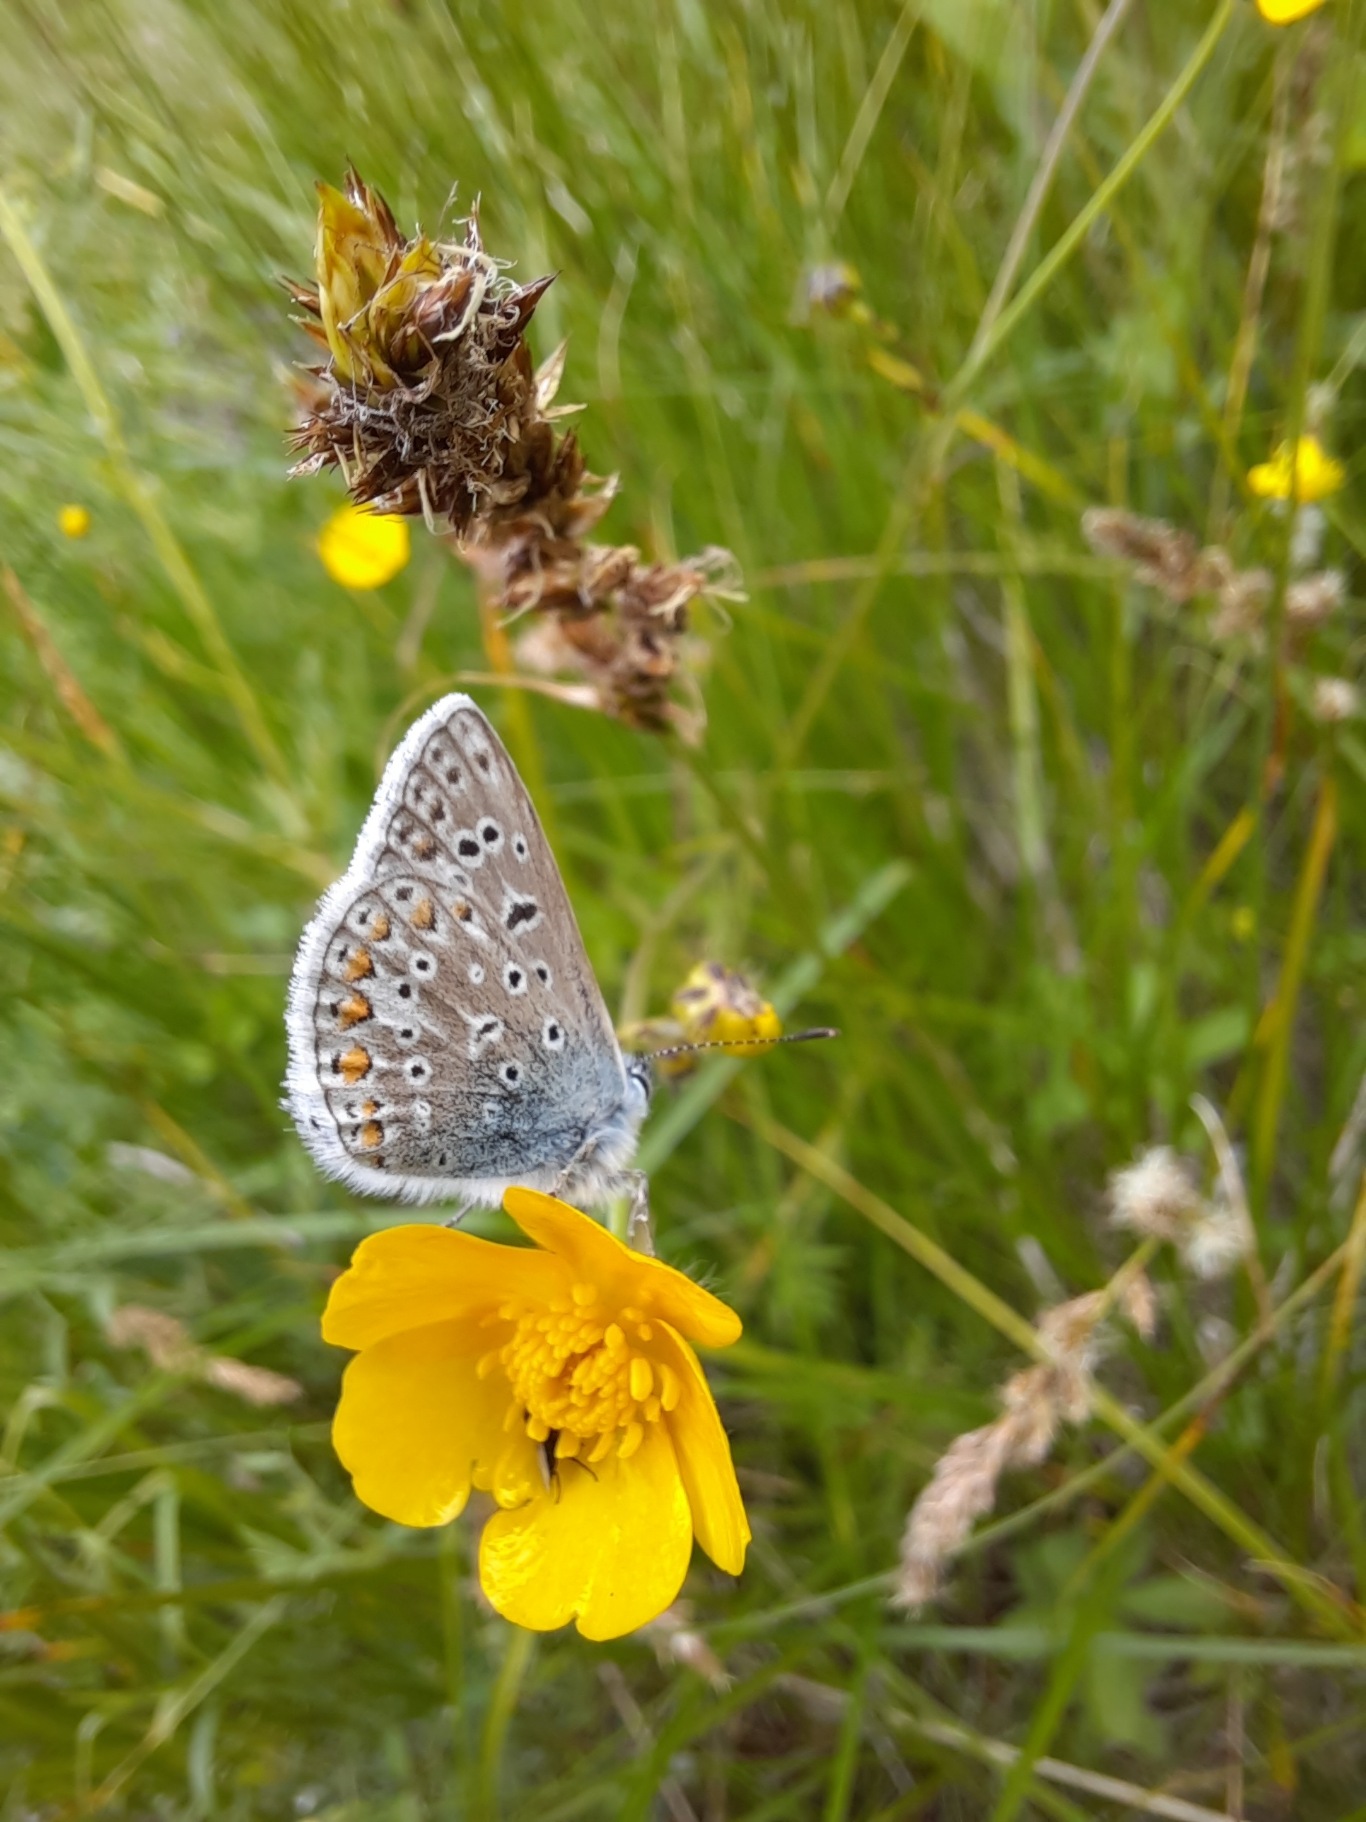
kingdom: Animalia
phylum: Arthropoda
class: Insecta
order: Lepidoptera
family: Lycaenidae
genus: Polyommatus
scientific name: Polyommatus icarus
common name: Almindelig blåfugl
